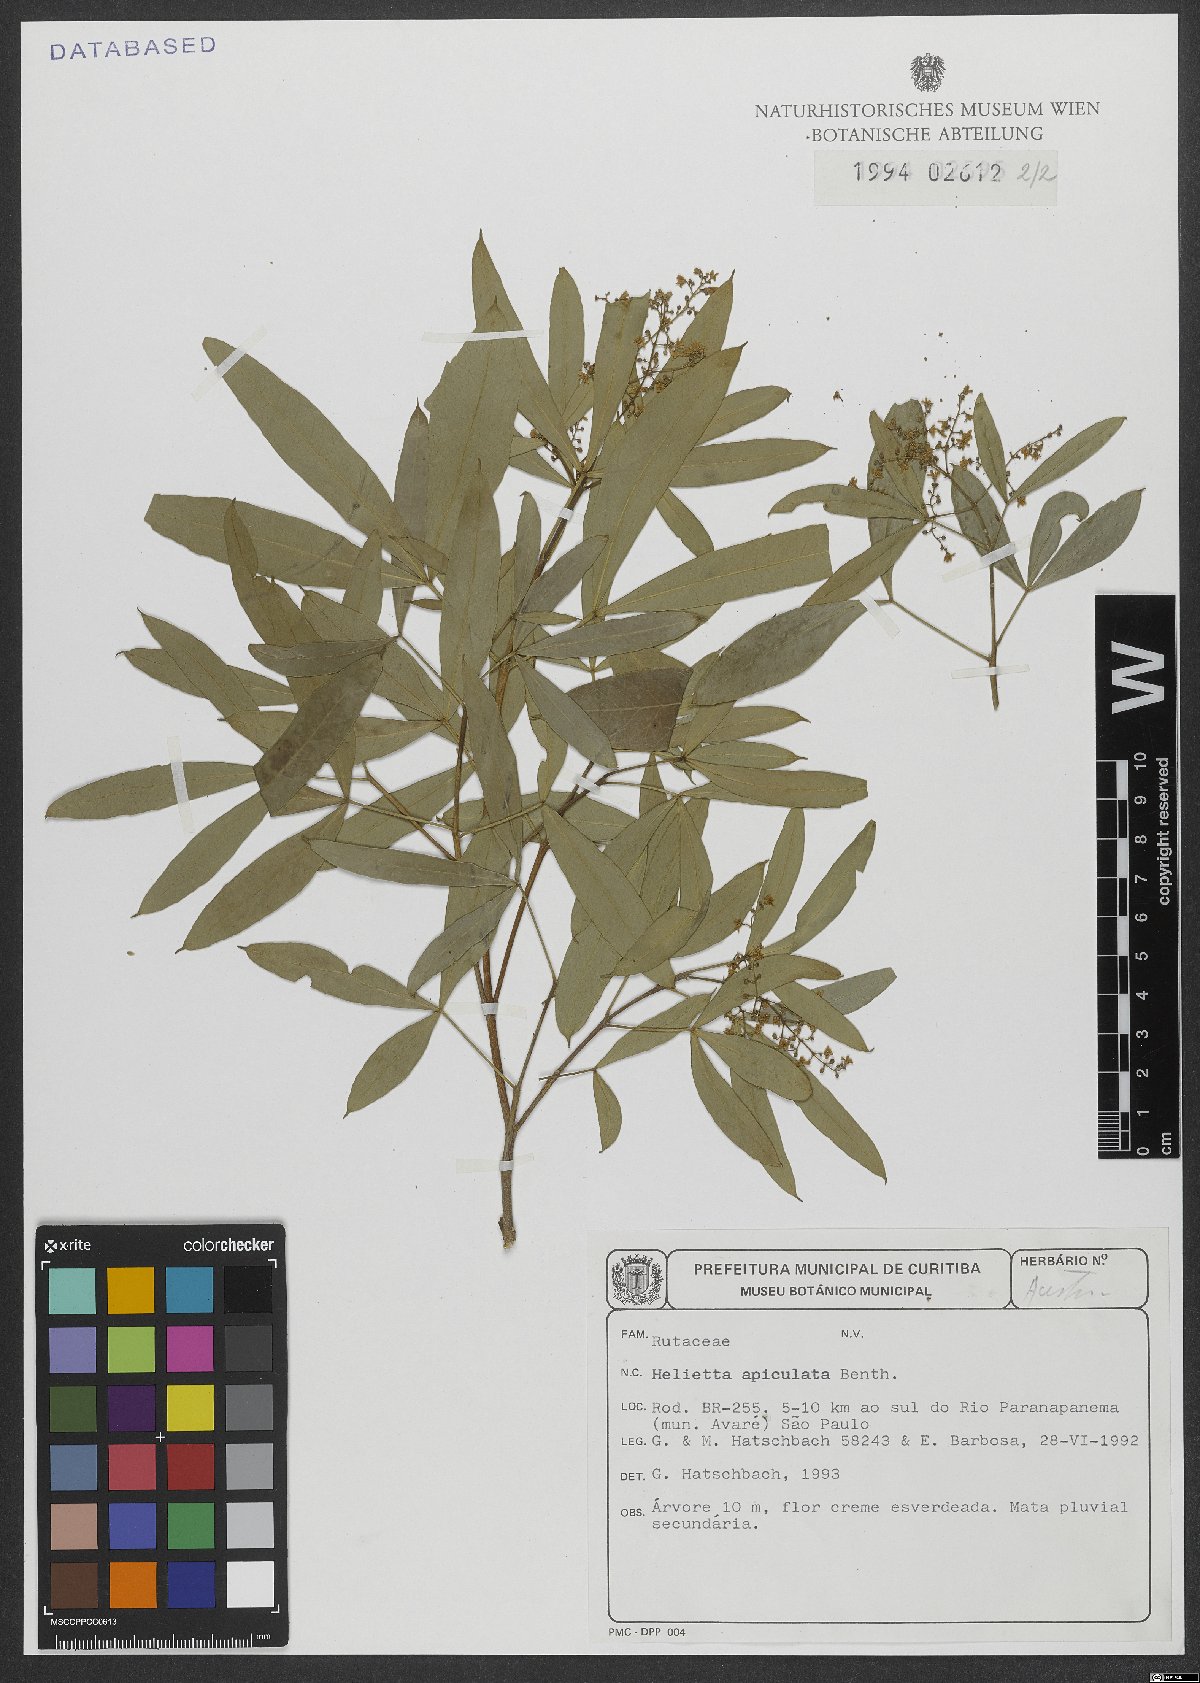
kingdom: Plantae
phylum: Tracheophyta
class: Magnoliopsida
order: Sapindales
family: Rutaceae
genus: Helietta
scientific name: Helietta apiculata
